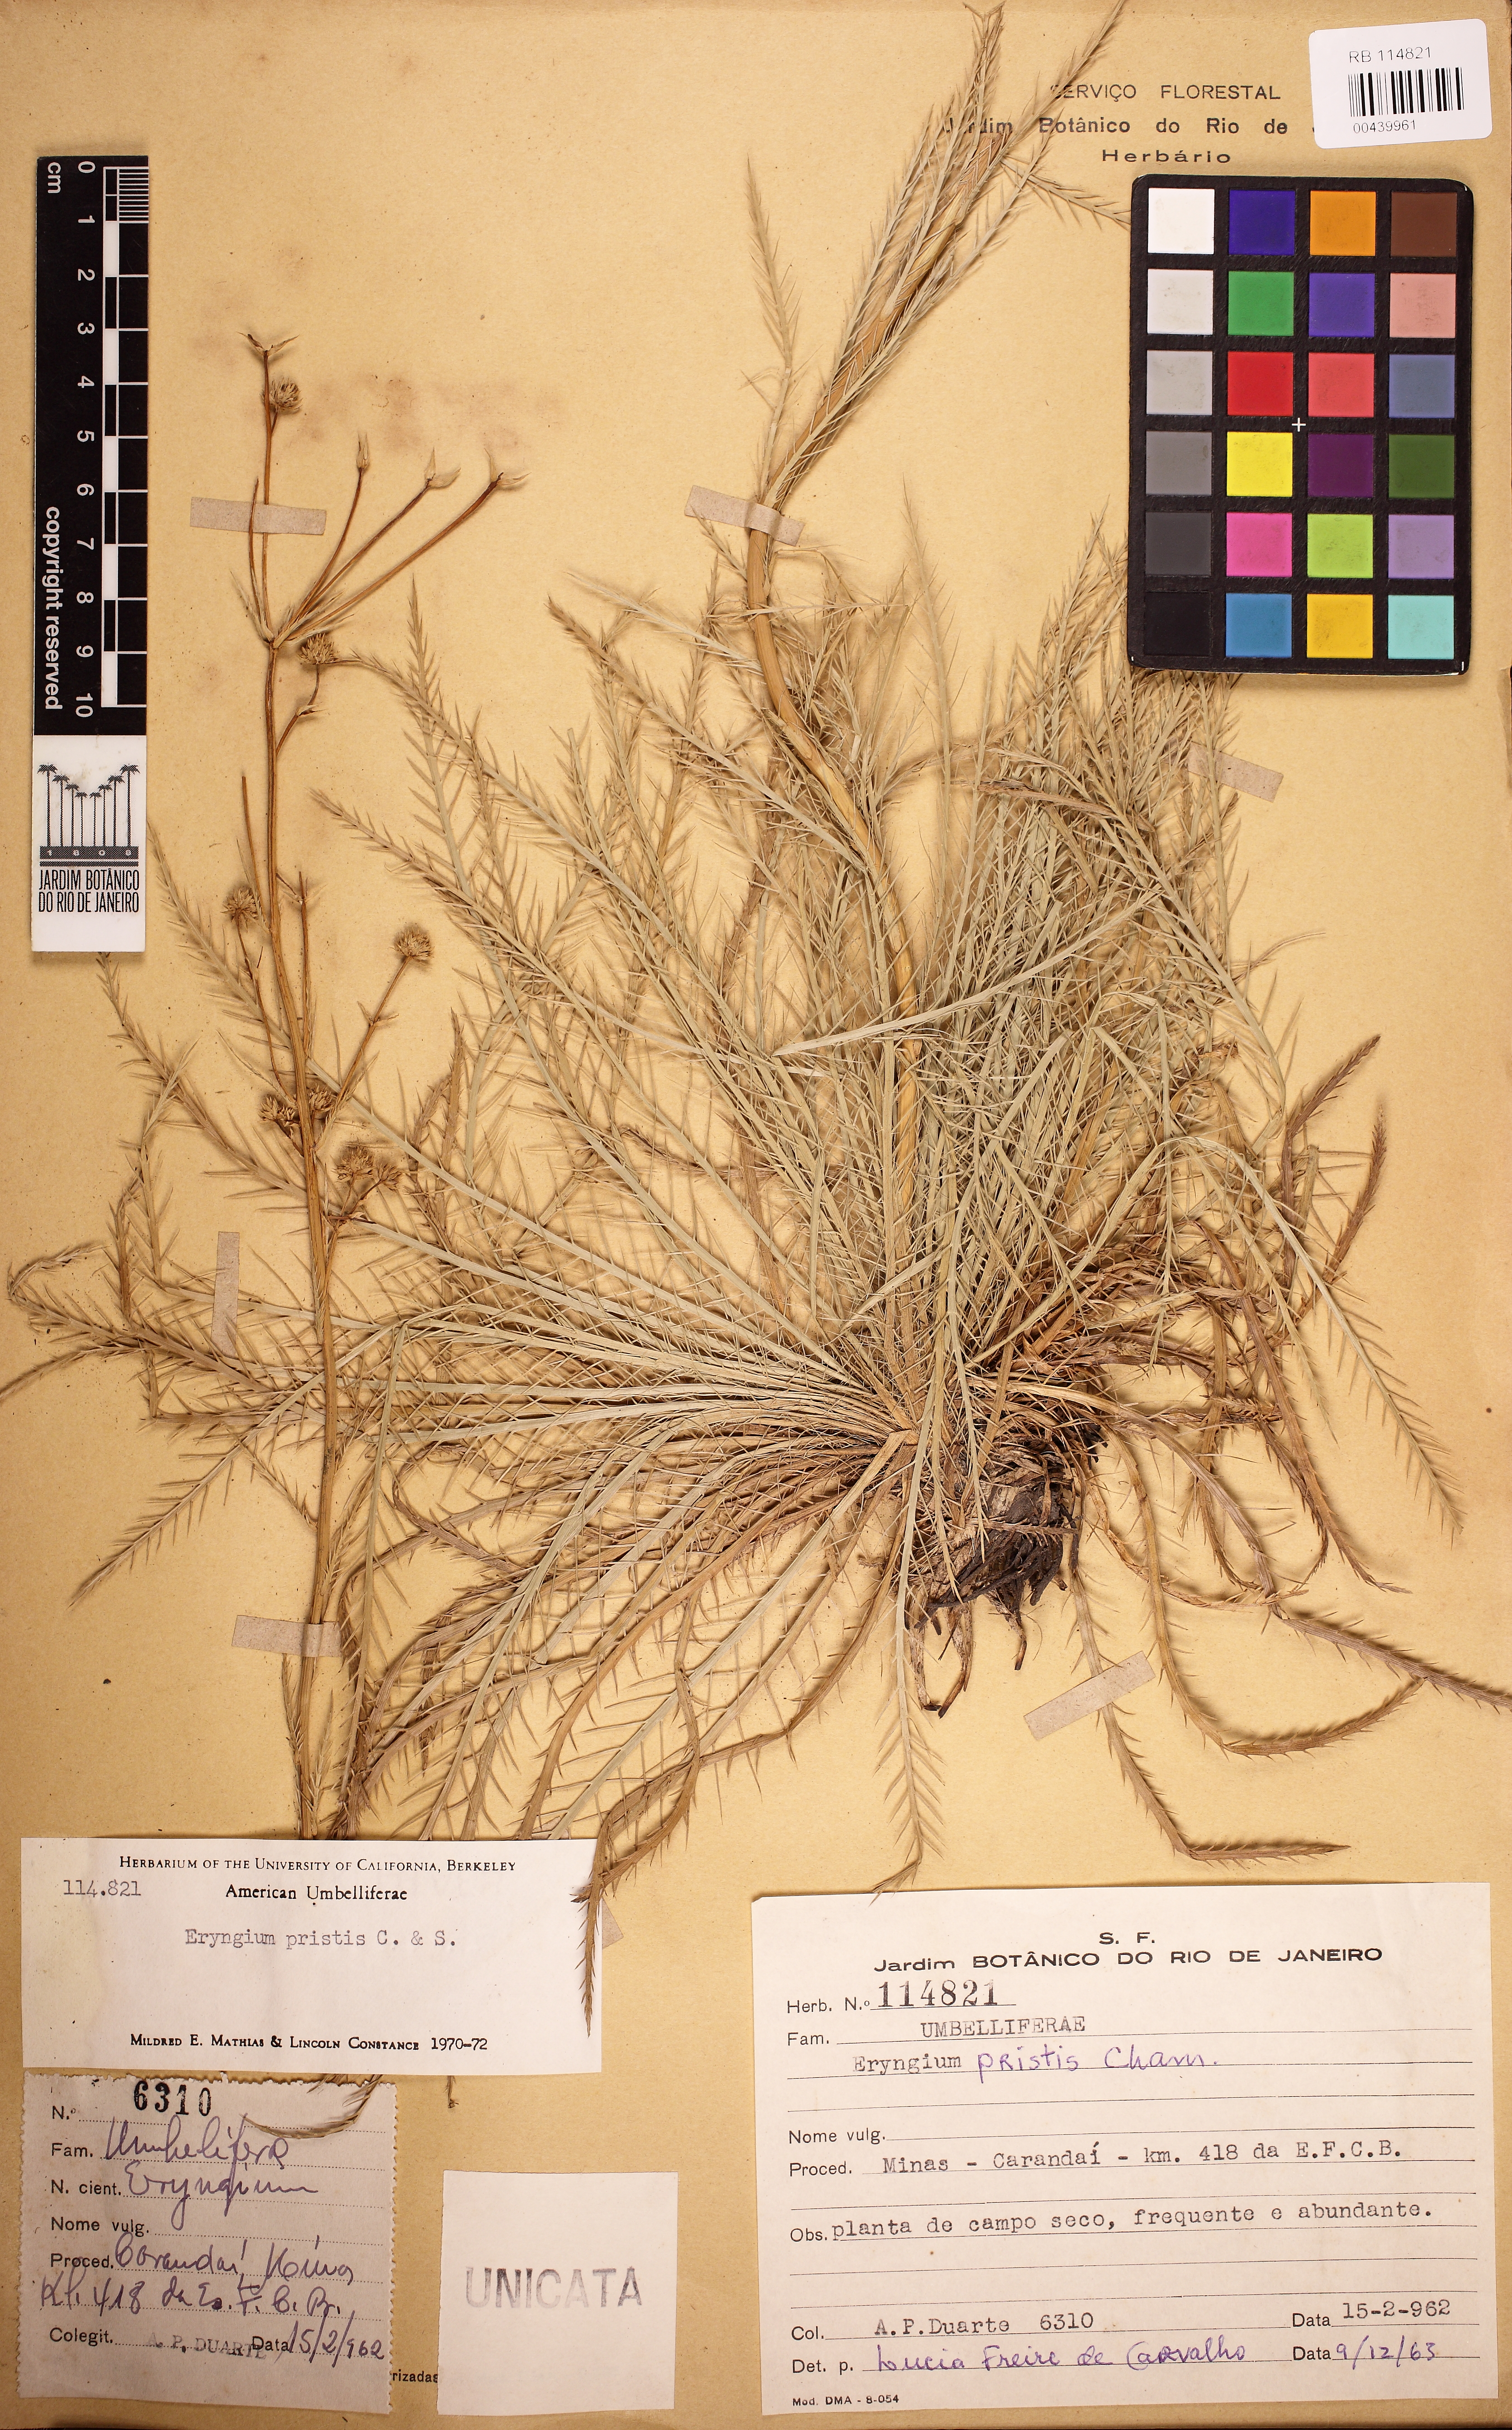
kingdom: Plantae
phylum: Tracheophyta
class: Magnoliopsida
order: Apiales
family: Apiaceae
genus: Eryngium
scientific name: Eryngium pristis
